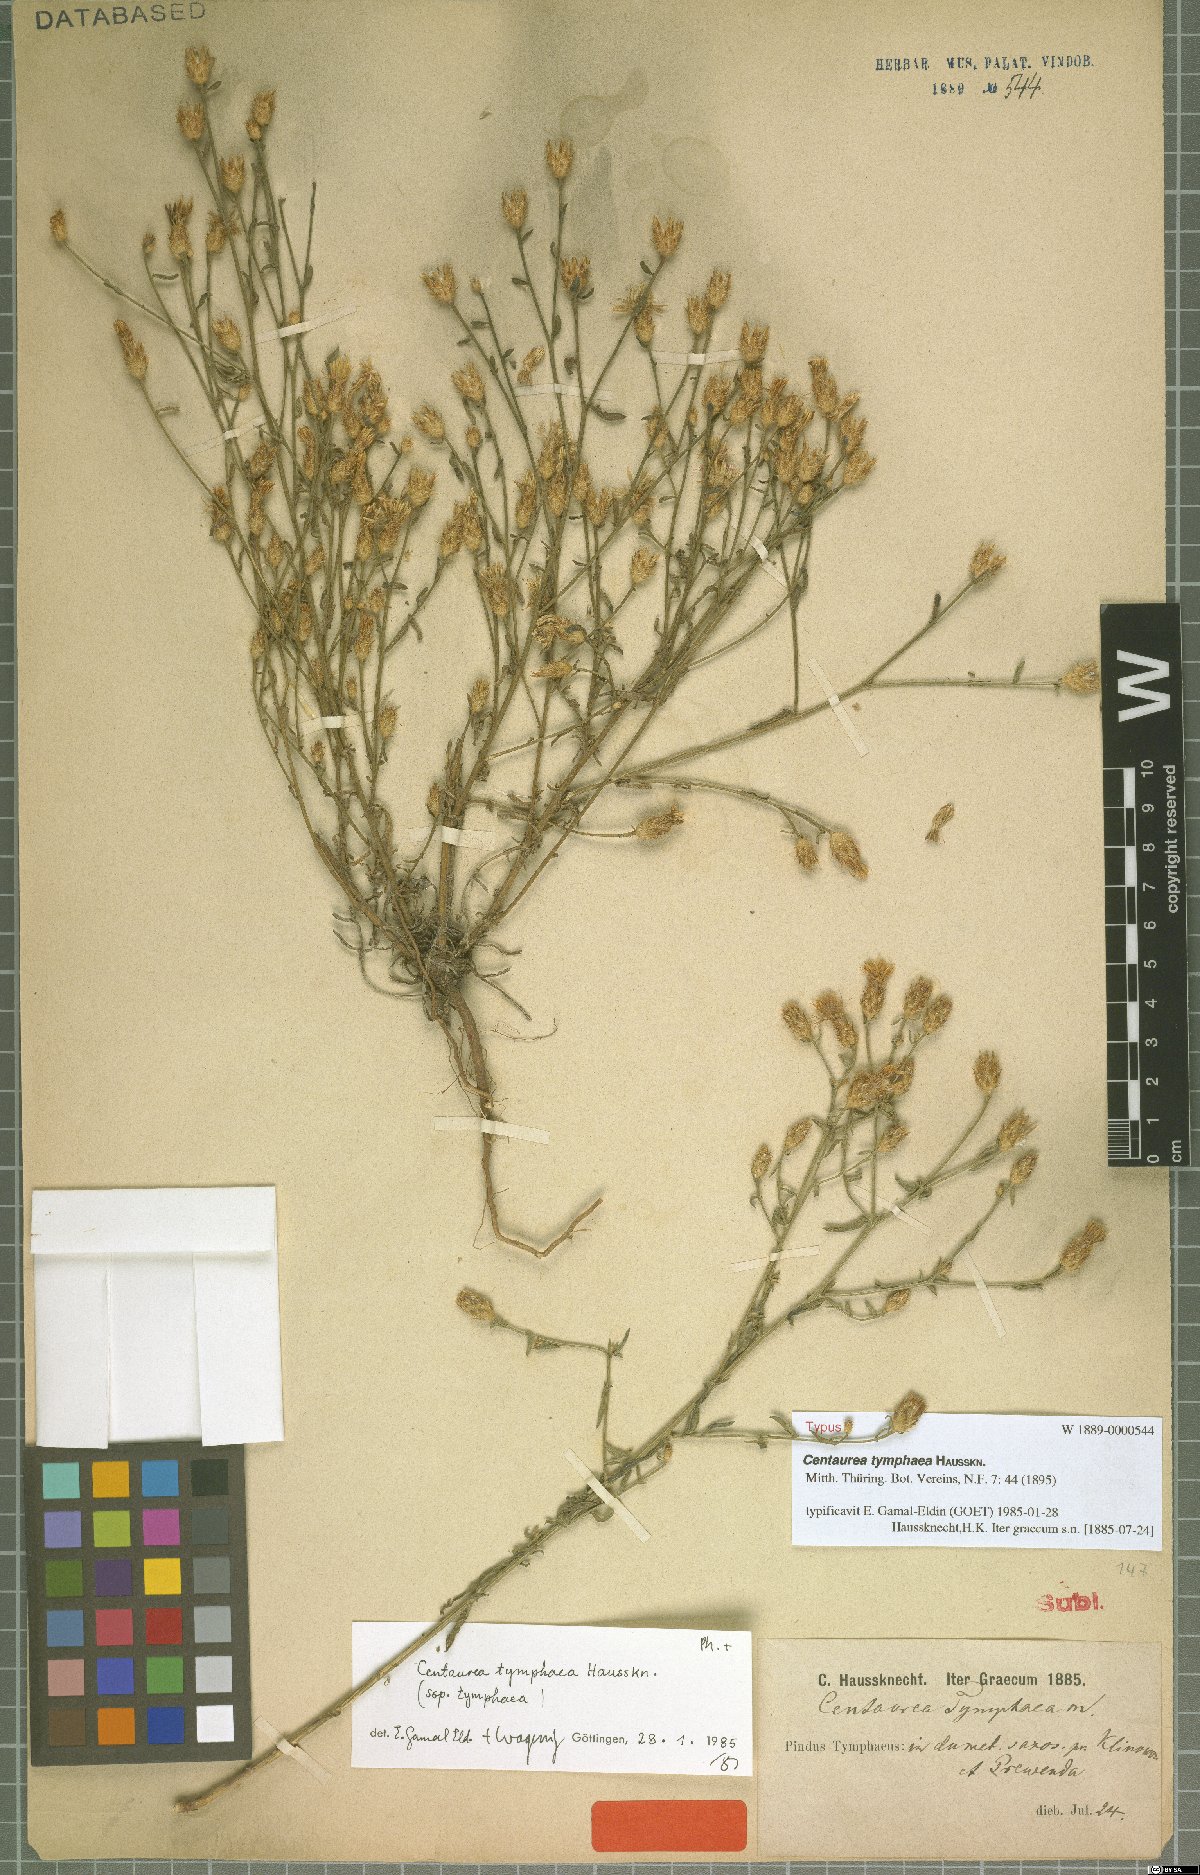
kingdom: Plantae
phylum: Tracheophyta
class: Magnoliopsida
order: Asterales
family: Asteraceae
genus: Centaurea
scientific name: Centaurea tymphaea
